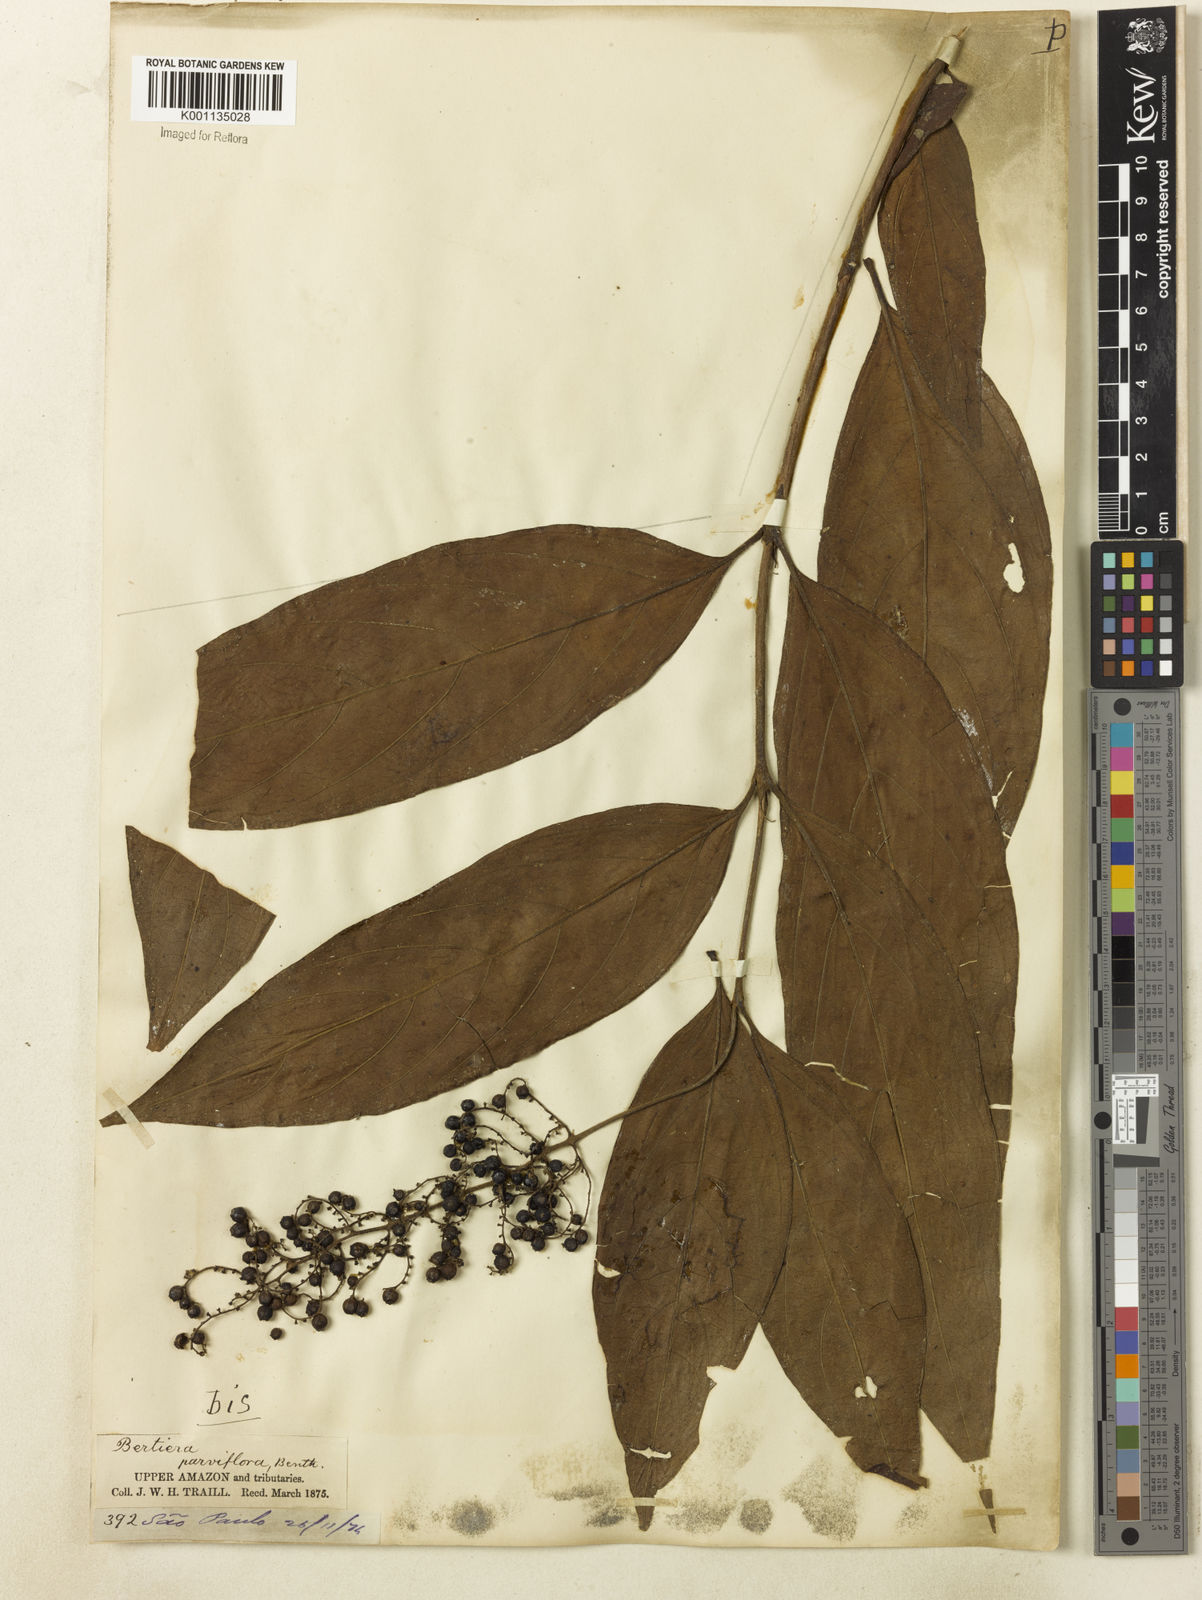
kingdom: Plantae
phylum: Tracheophyta
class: Magnoliopsida
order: Gentianales
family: Rubiaceae
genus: Bertiera
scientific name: Bertiera parviflora
